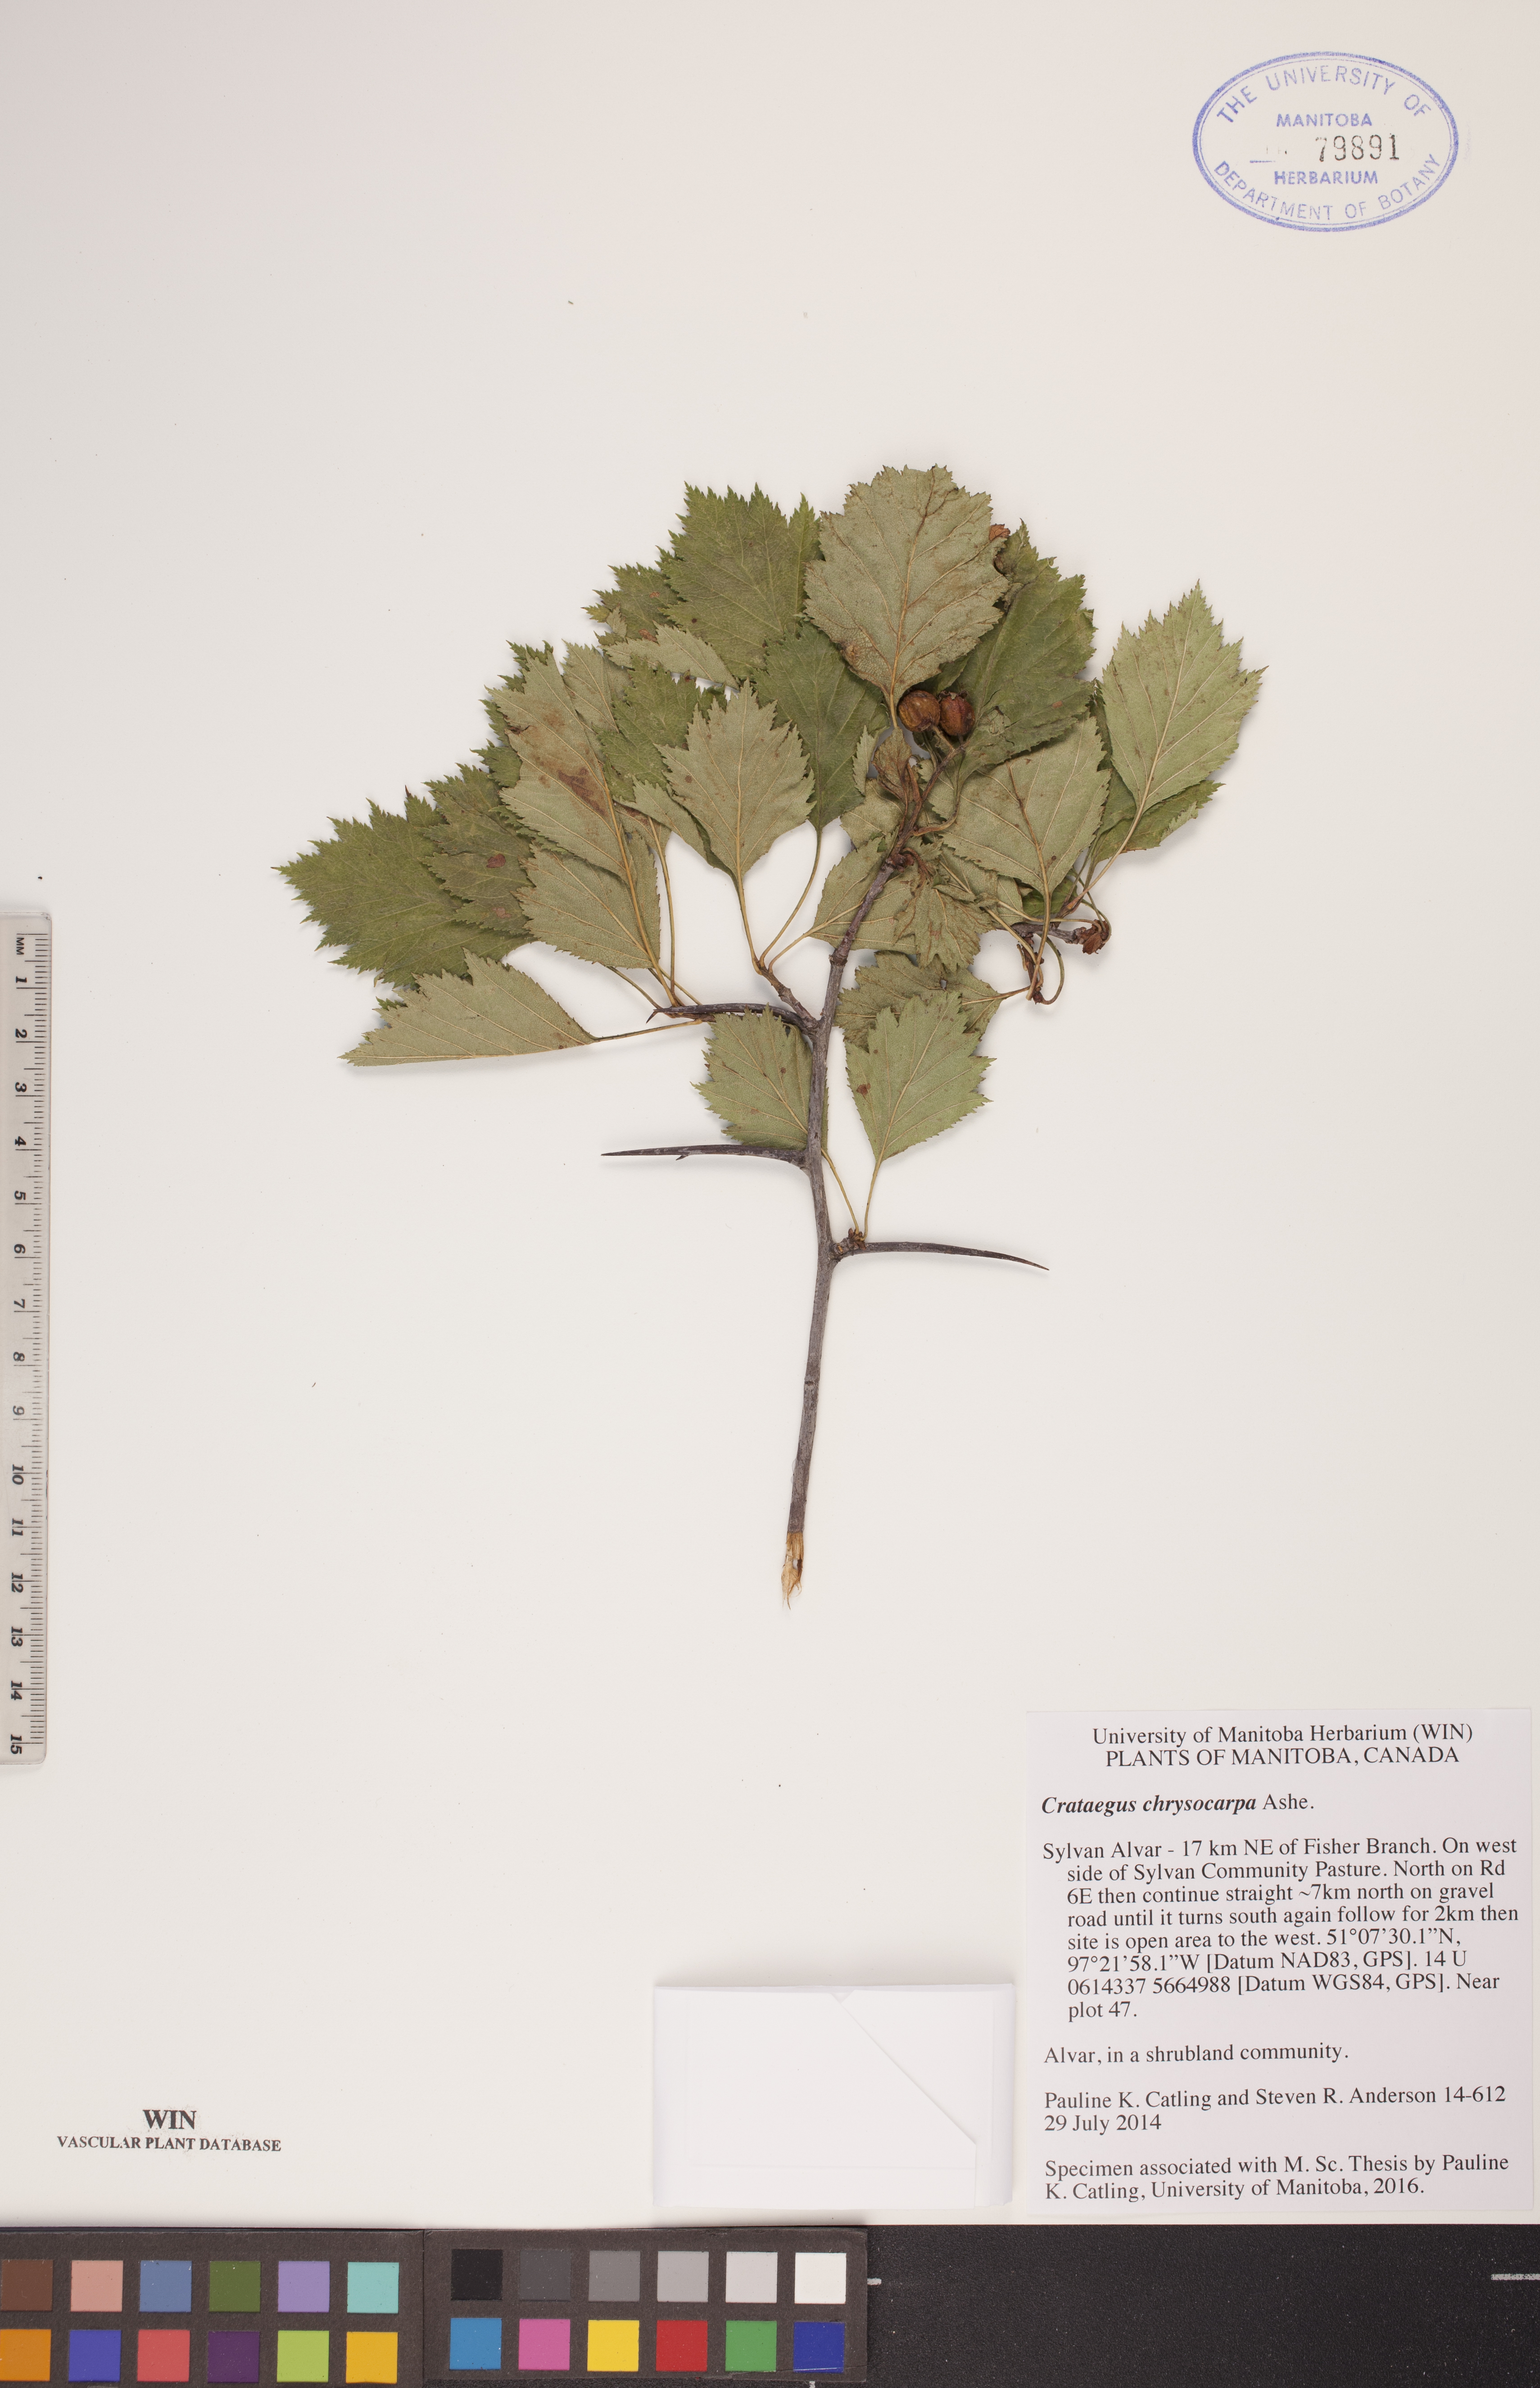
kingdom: Plantae
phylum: Tracheophyta
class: Magnoliopsida
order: Rosales
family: Rosaceae
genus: Crataegus
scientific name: Crataegus chrysocarpa
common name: Fire-berry hawthorn
